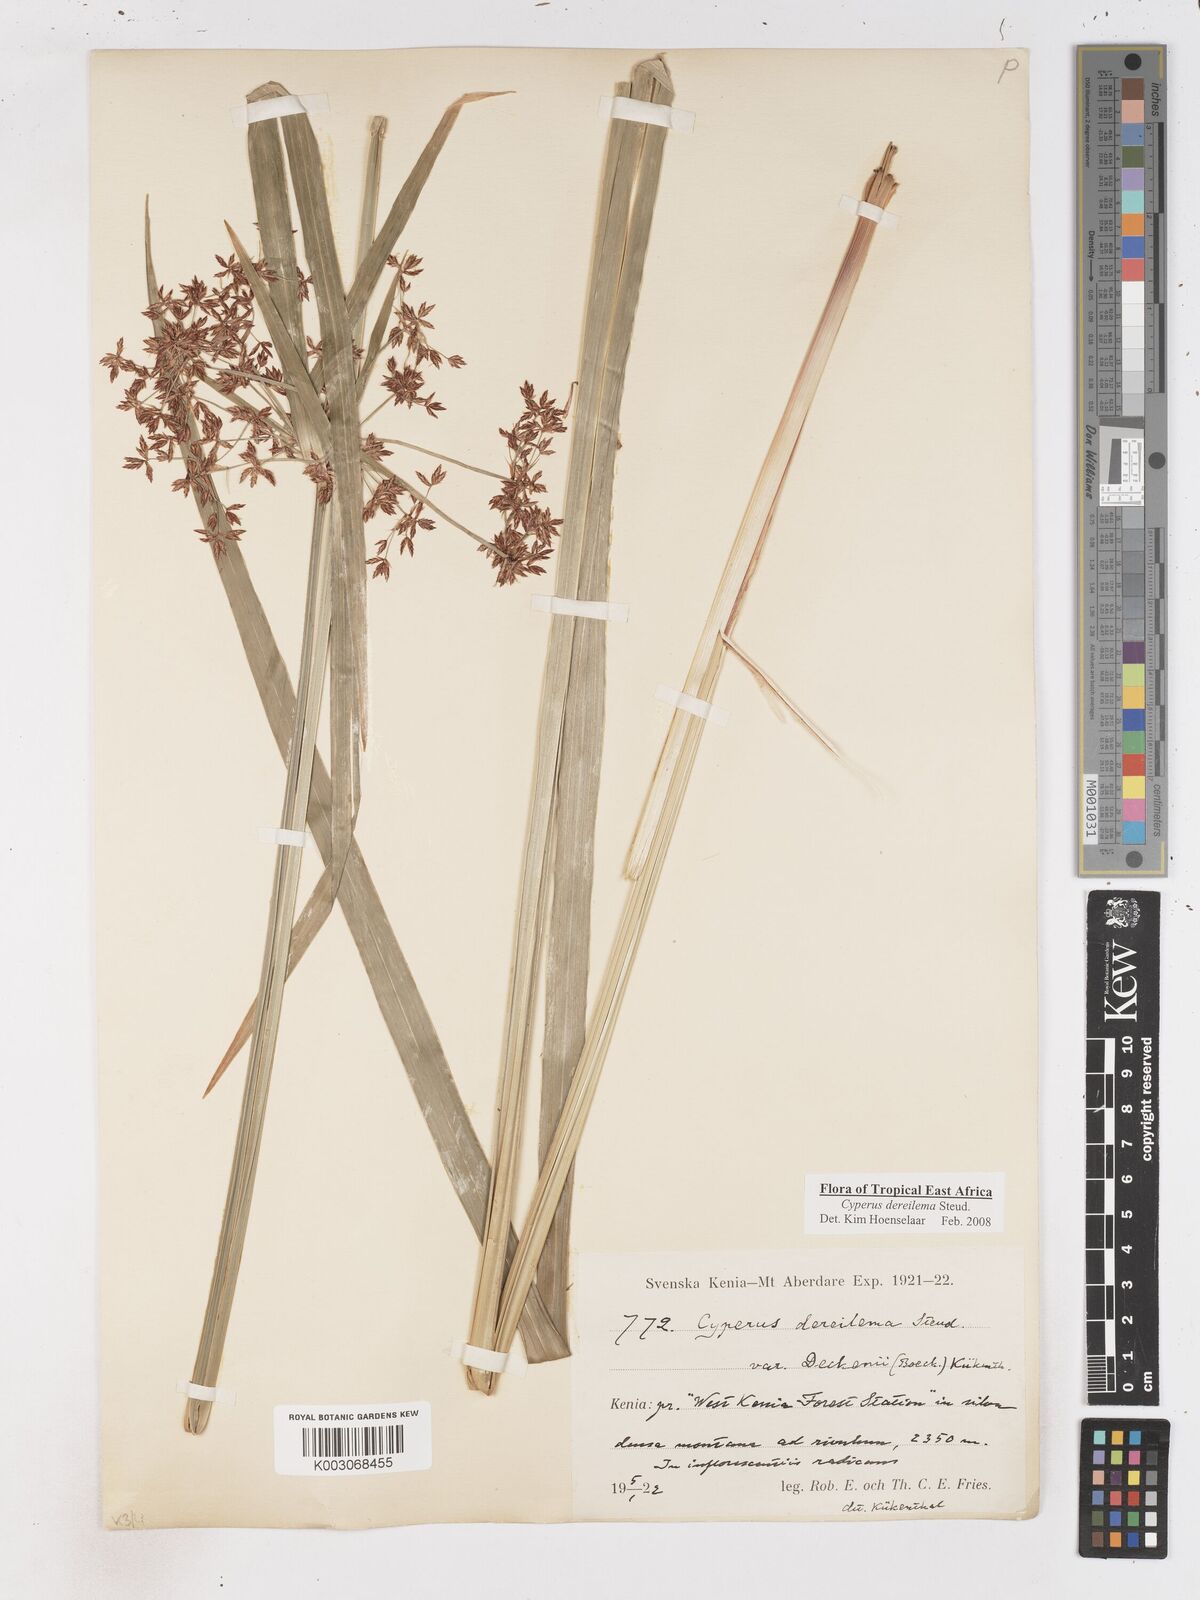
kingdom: Plantae
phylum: Tracheophyta
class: Liliopsida
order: Poales
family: Cyperaceae
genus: Cyperus
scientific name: Cyperus derreilema
